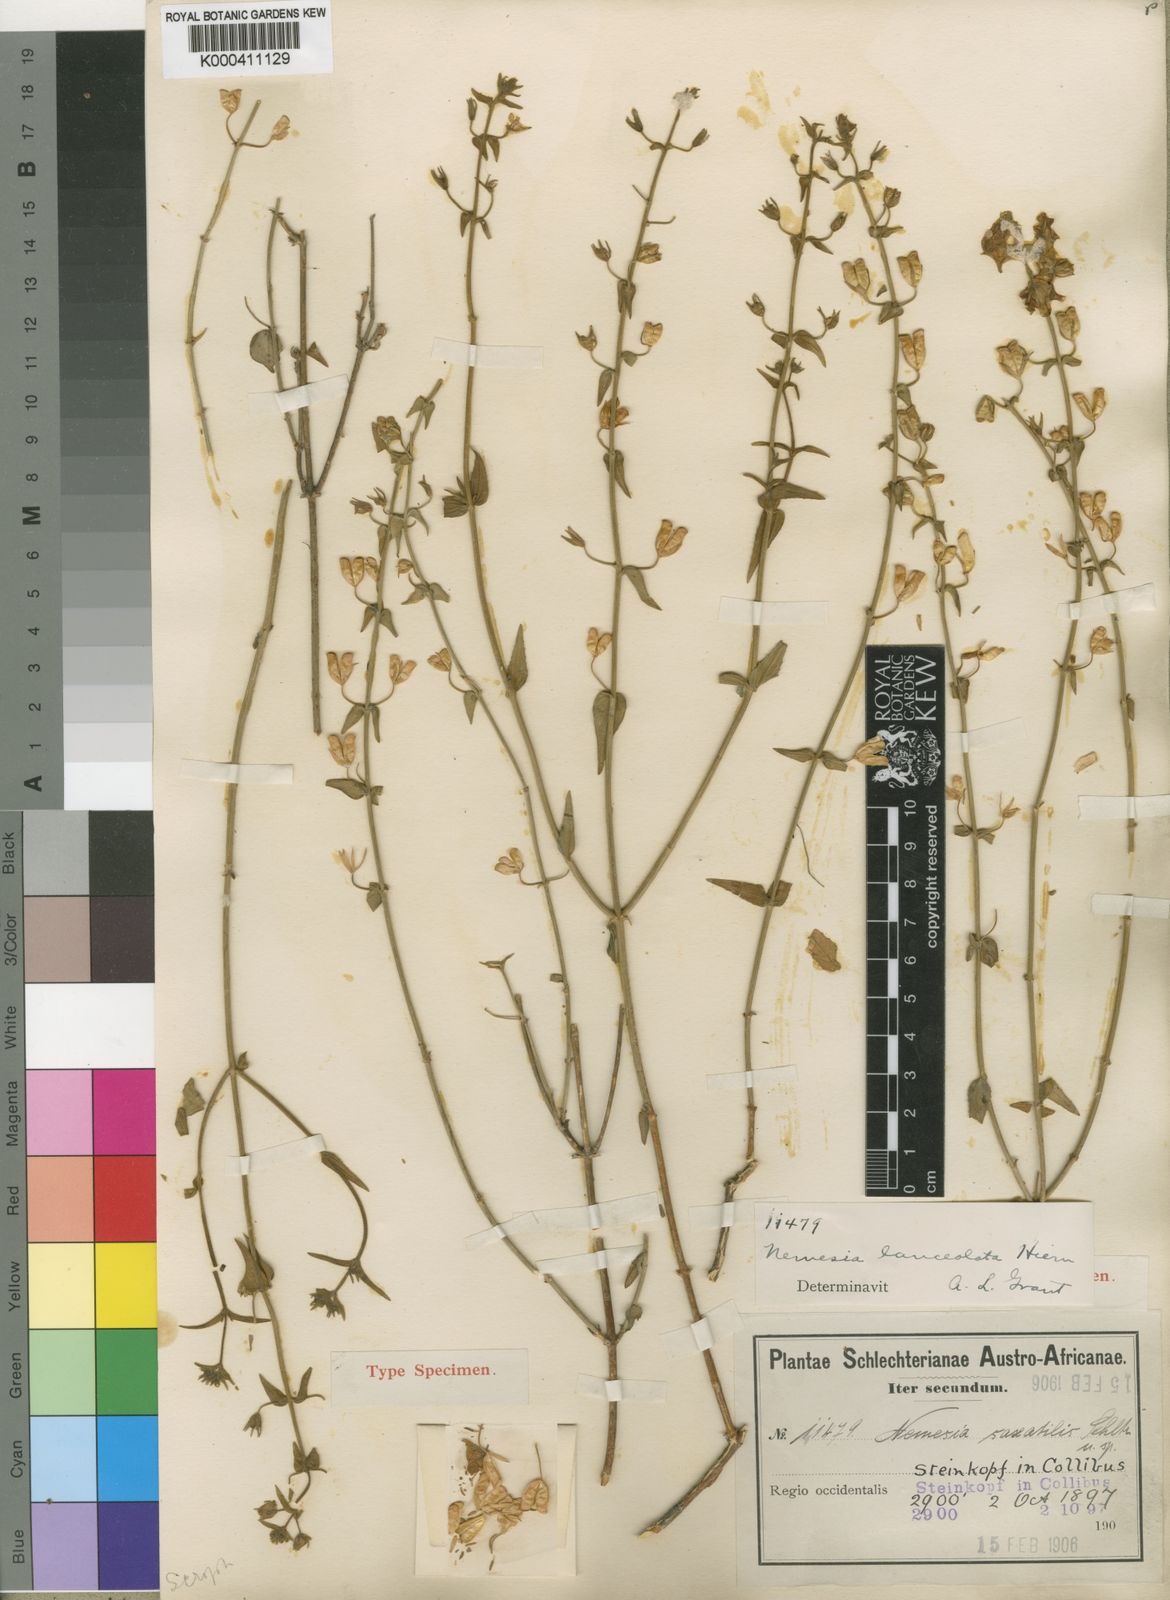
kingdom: Plantae
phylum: Tracheophyta
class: Magnoliopsida
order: Lamiales
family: Scrophulariaceae
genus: Nemesia
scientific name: Nemesia lanceolata
